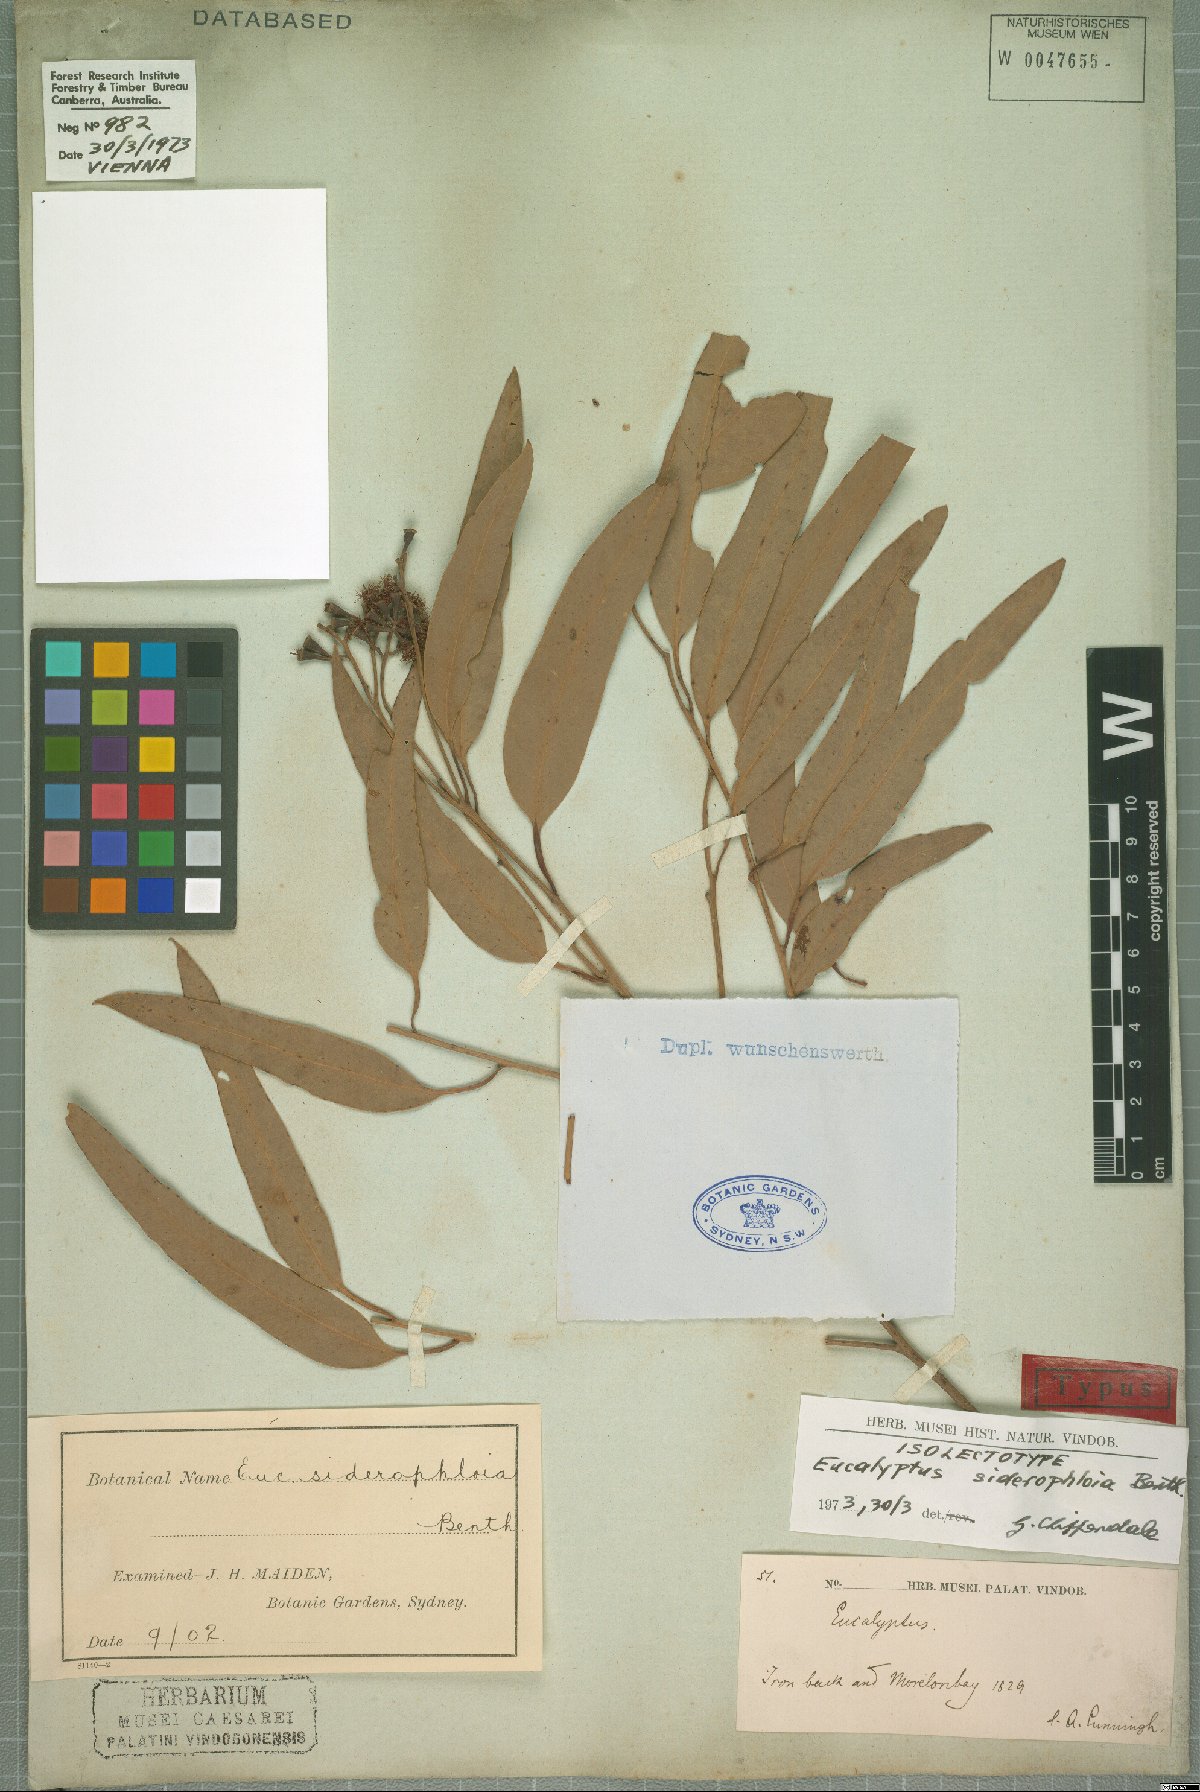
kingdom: Plantae
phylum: Tracheophyta
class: Magnoliopsida
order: Myrtales
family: Myrtaceae
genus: Eucalyptus
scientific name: Eucalyptus siderophloia
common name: Broad-leafed-ironbark
